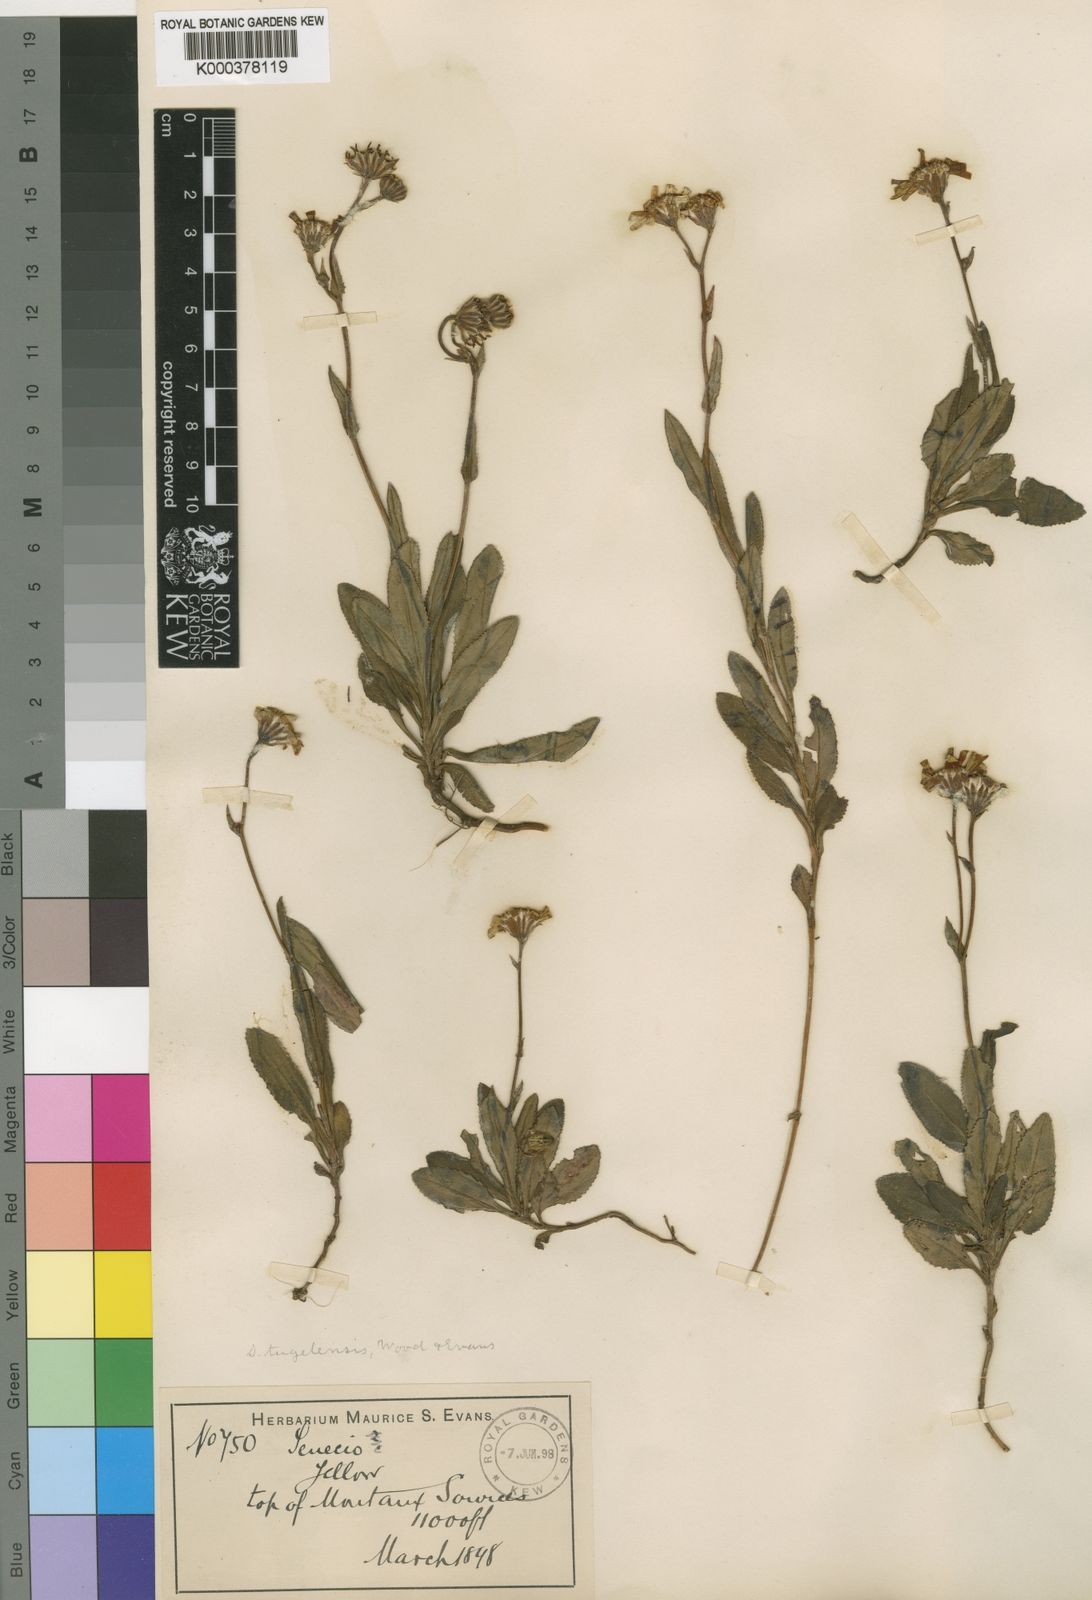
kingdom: Plantae
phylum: Tracheophyta
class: Magnoliopsida
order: Asterales
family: Asteraceae
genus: Senecio
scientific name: Senecio tugelensis
